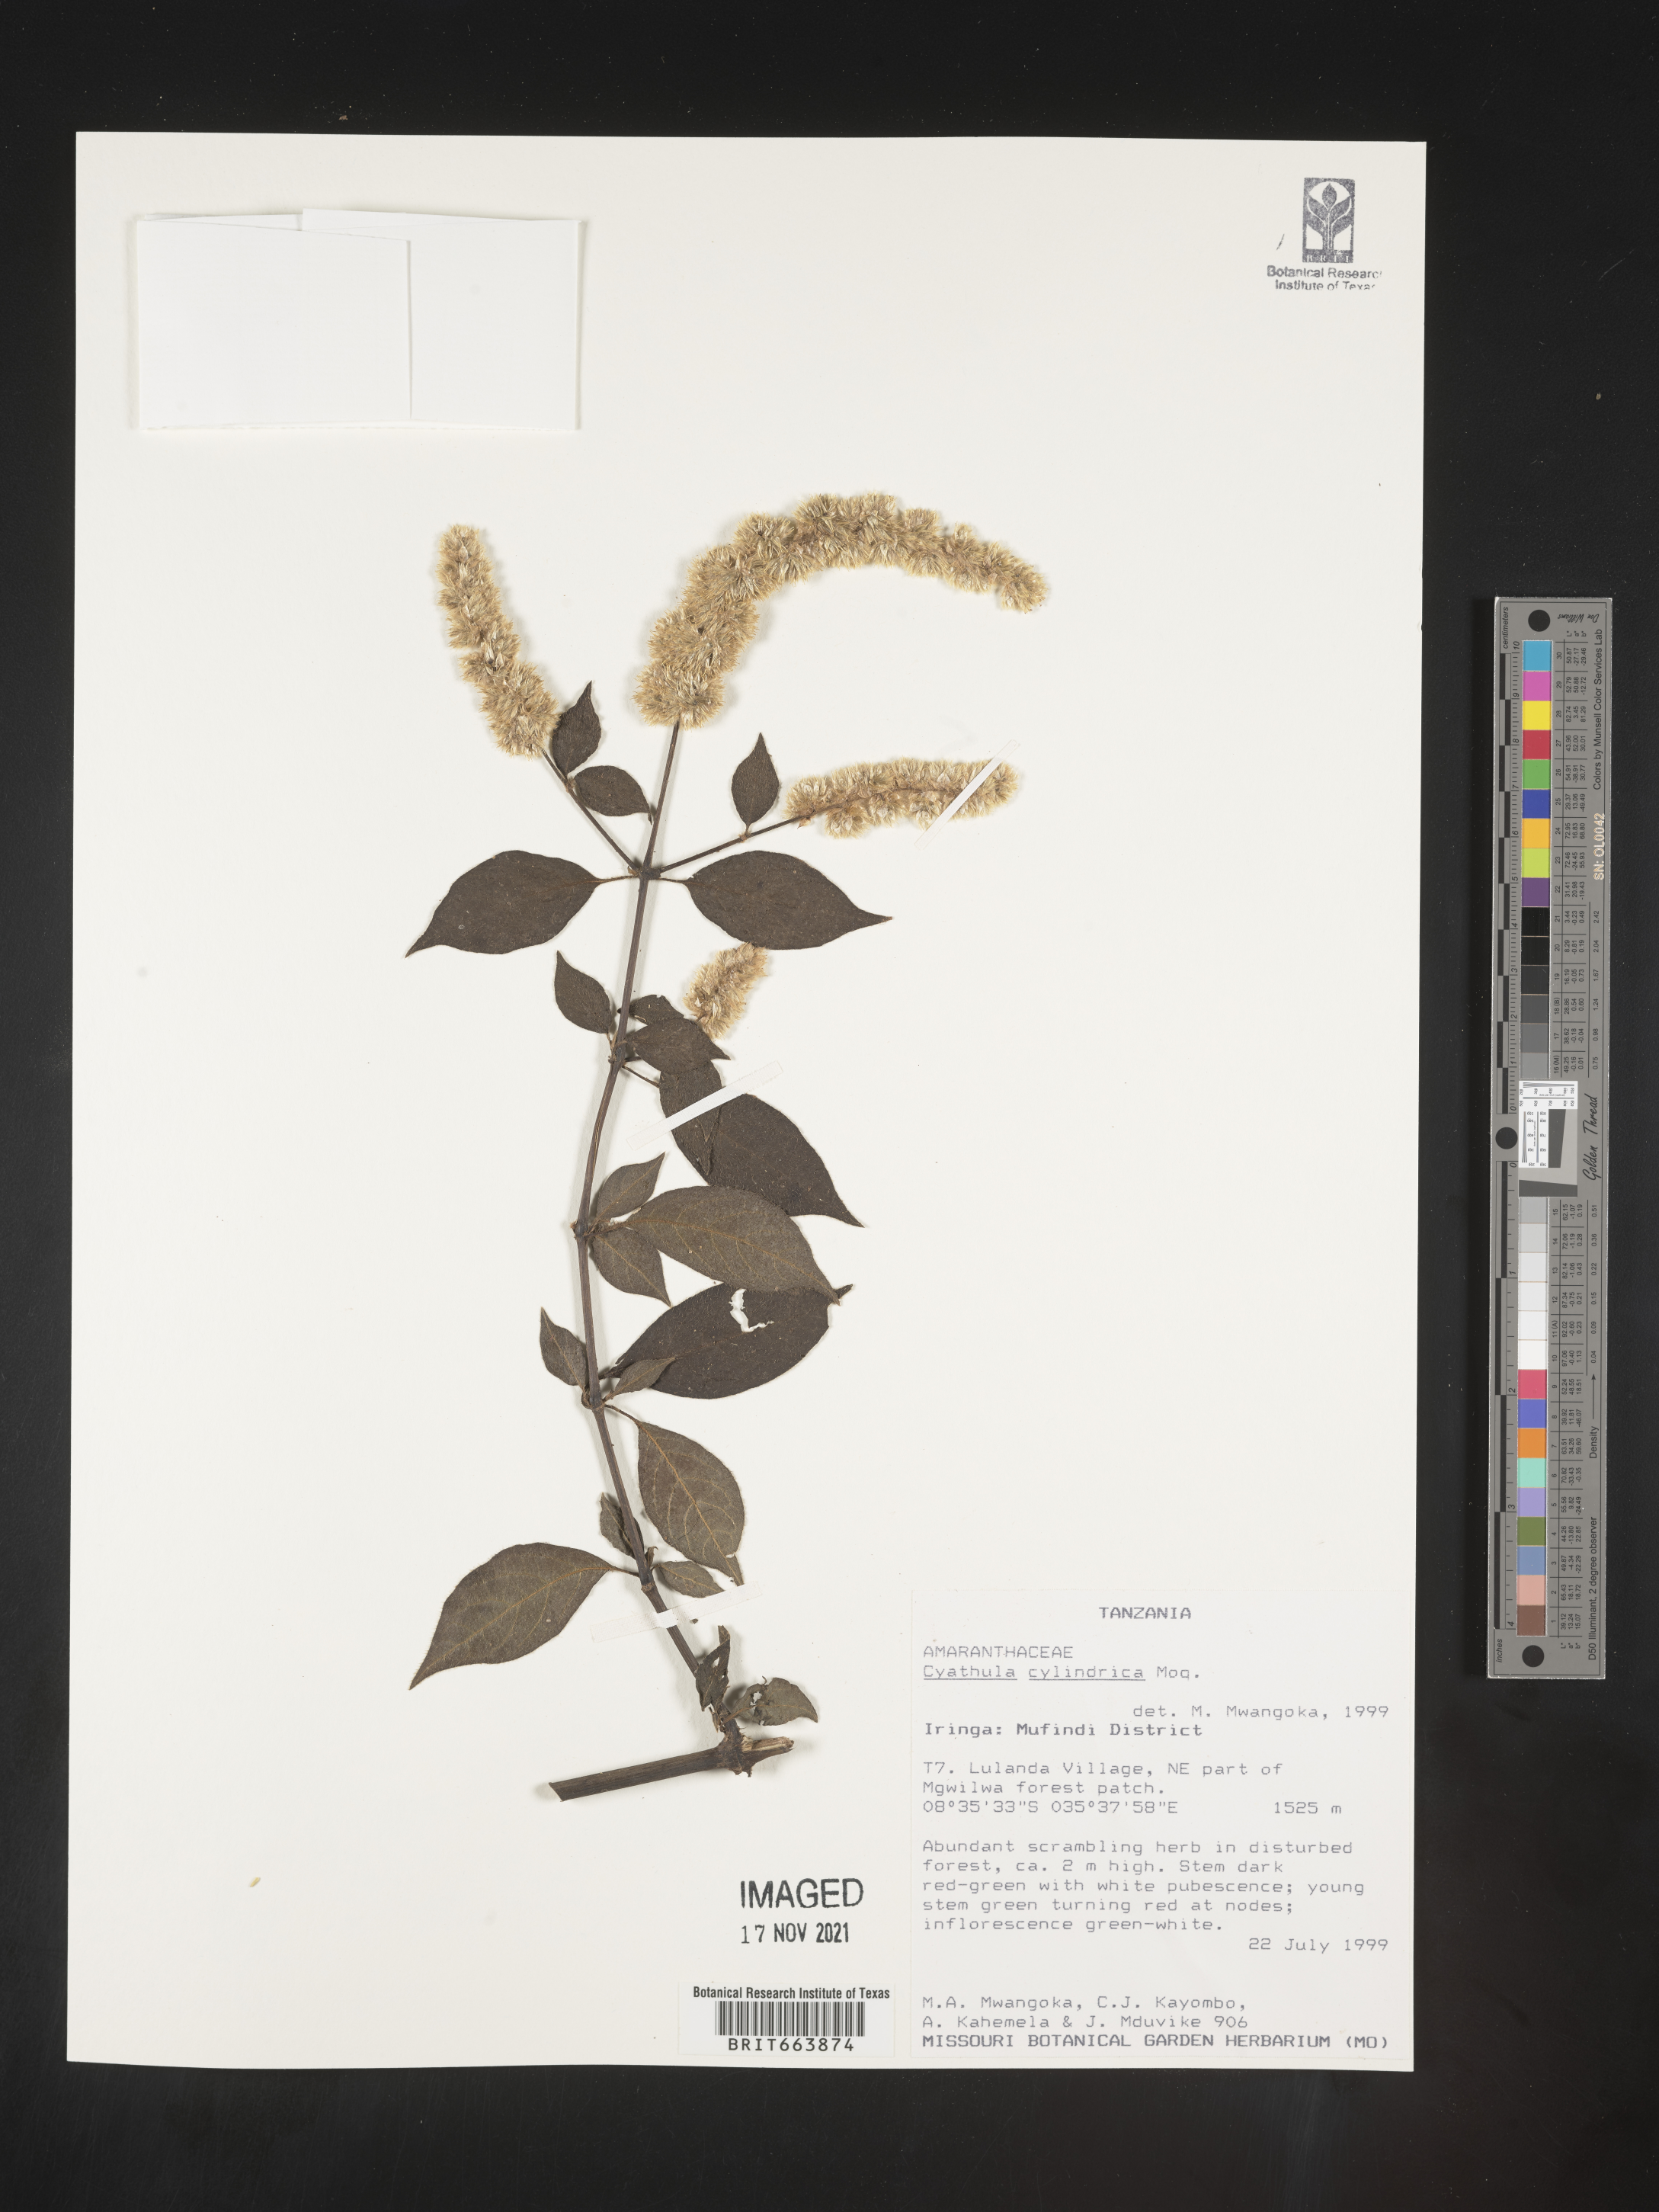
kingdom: Plantae
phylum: Tracheophyta
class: Magnoliopsida
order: Caryophyllales
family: Amaranthaceae
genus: Cyathula
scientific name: Cyathula
